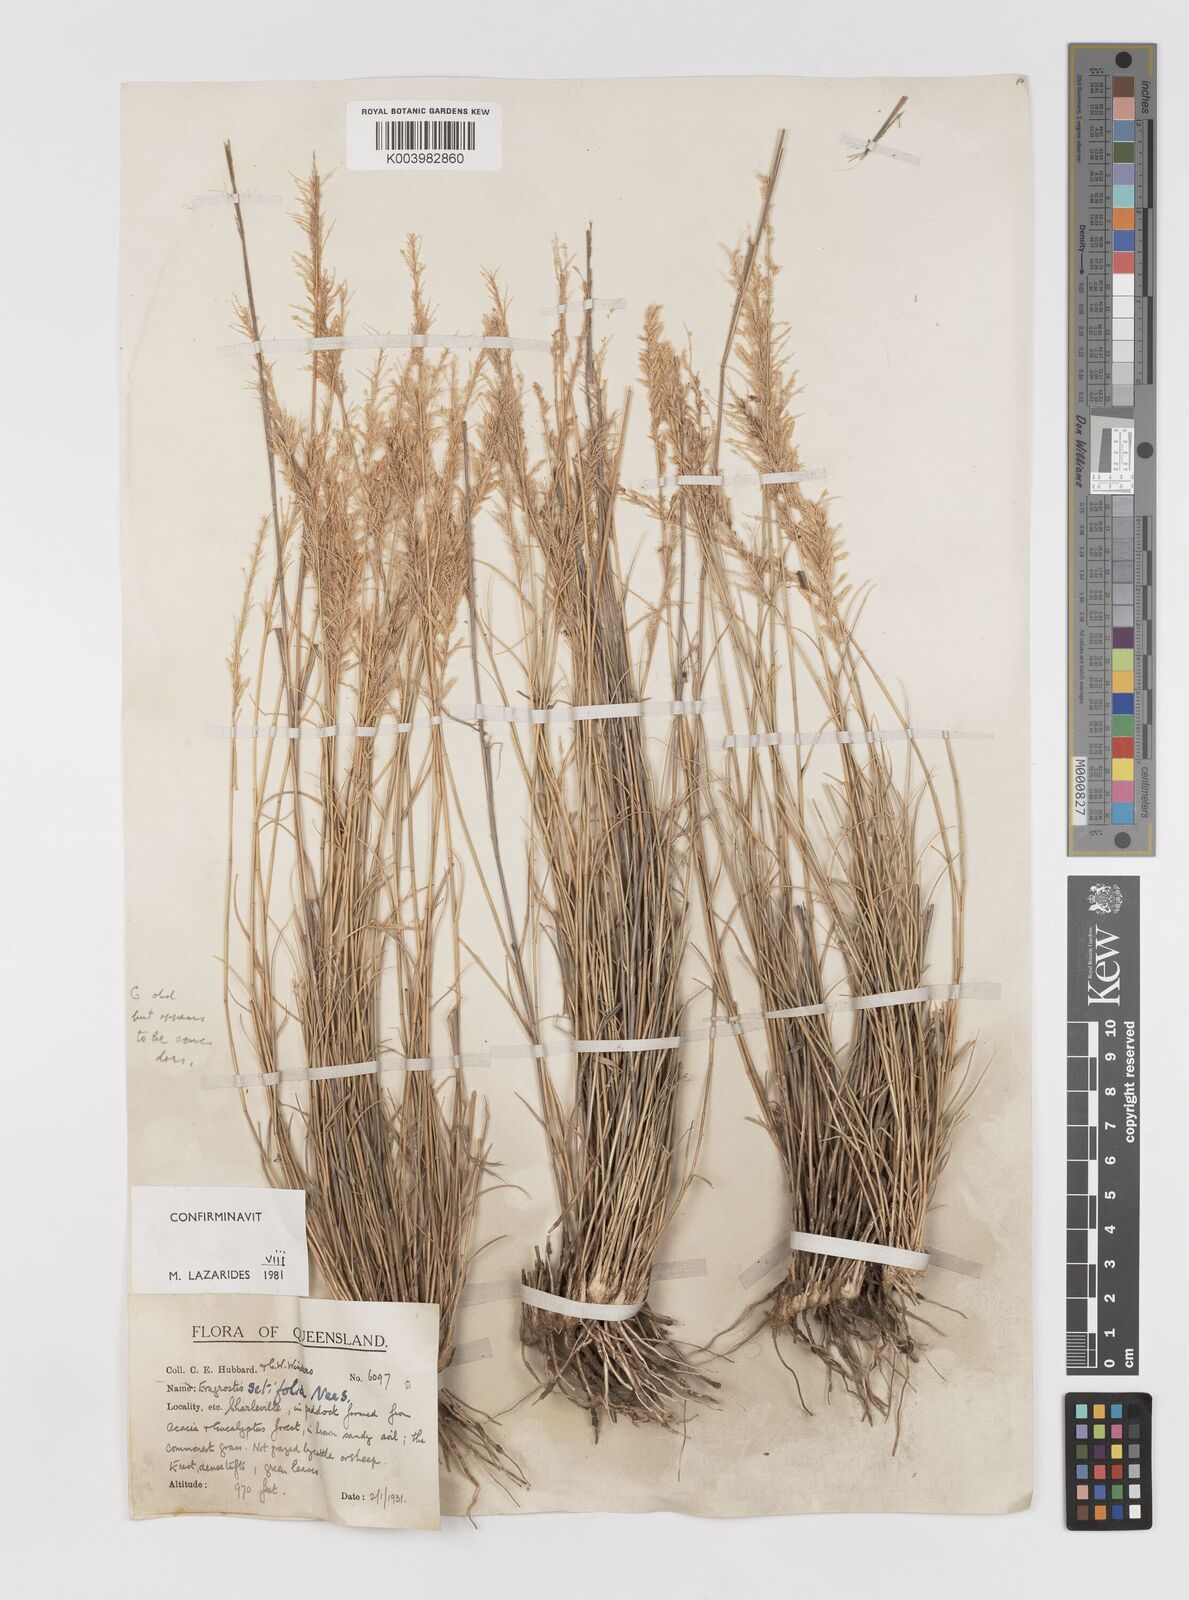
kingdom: Plantae
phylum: Tracheophyta
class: Liliopsida
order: Poales
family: Poaceae
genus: Eragrostis
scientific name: Eragrostis setifolia
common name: Bristleleaf lovegrass
